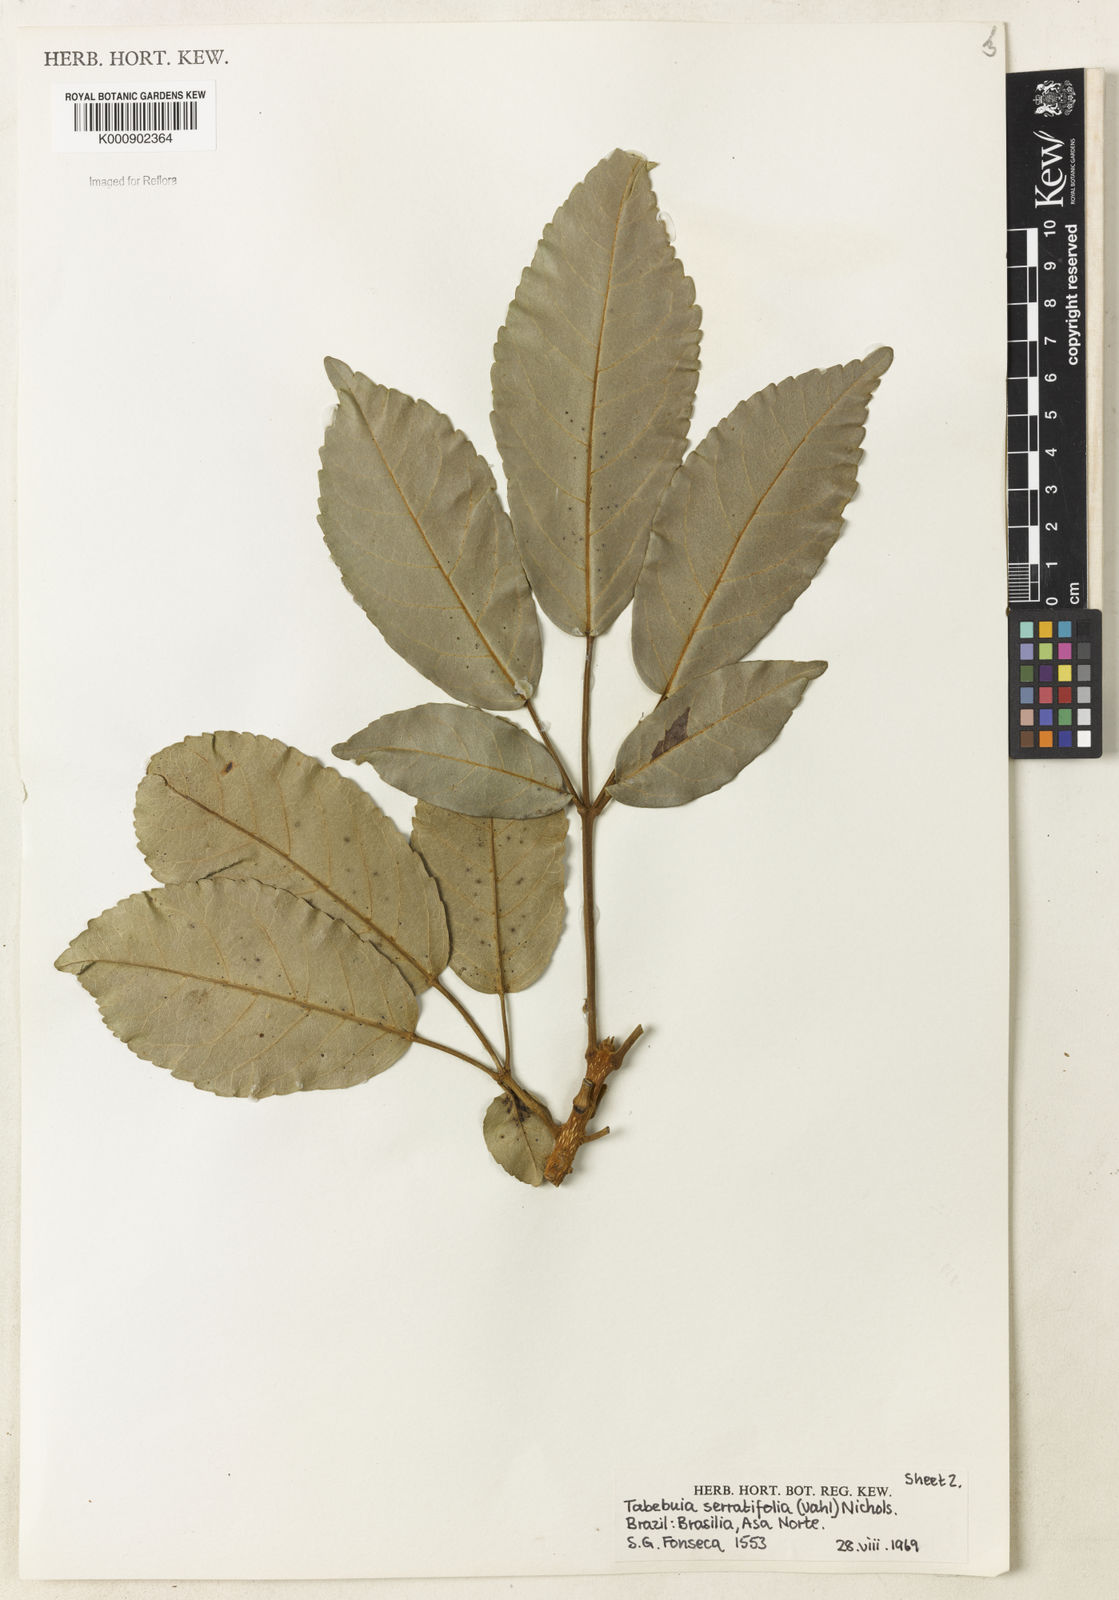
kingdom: Plantae
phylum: Tracheophyta
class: Magnoliopsida
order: Lamiales
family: Bignoniaceae
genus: Handroanthus
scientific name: Handroanthus serratifolius
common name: Yellow ipe
